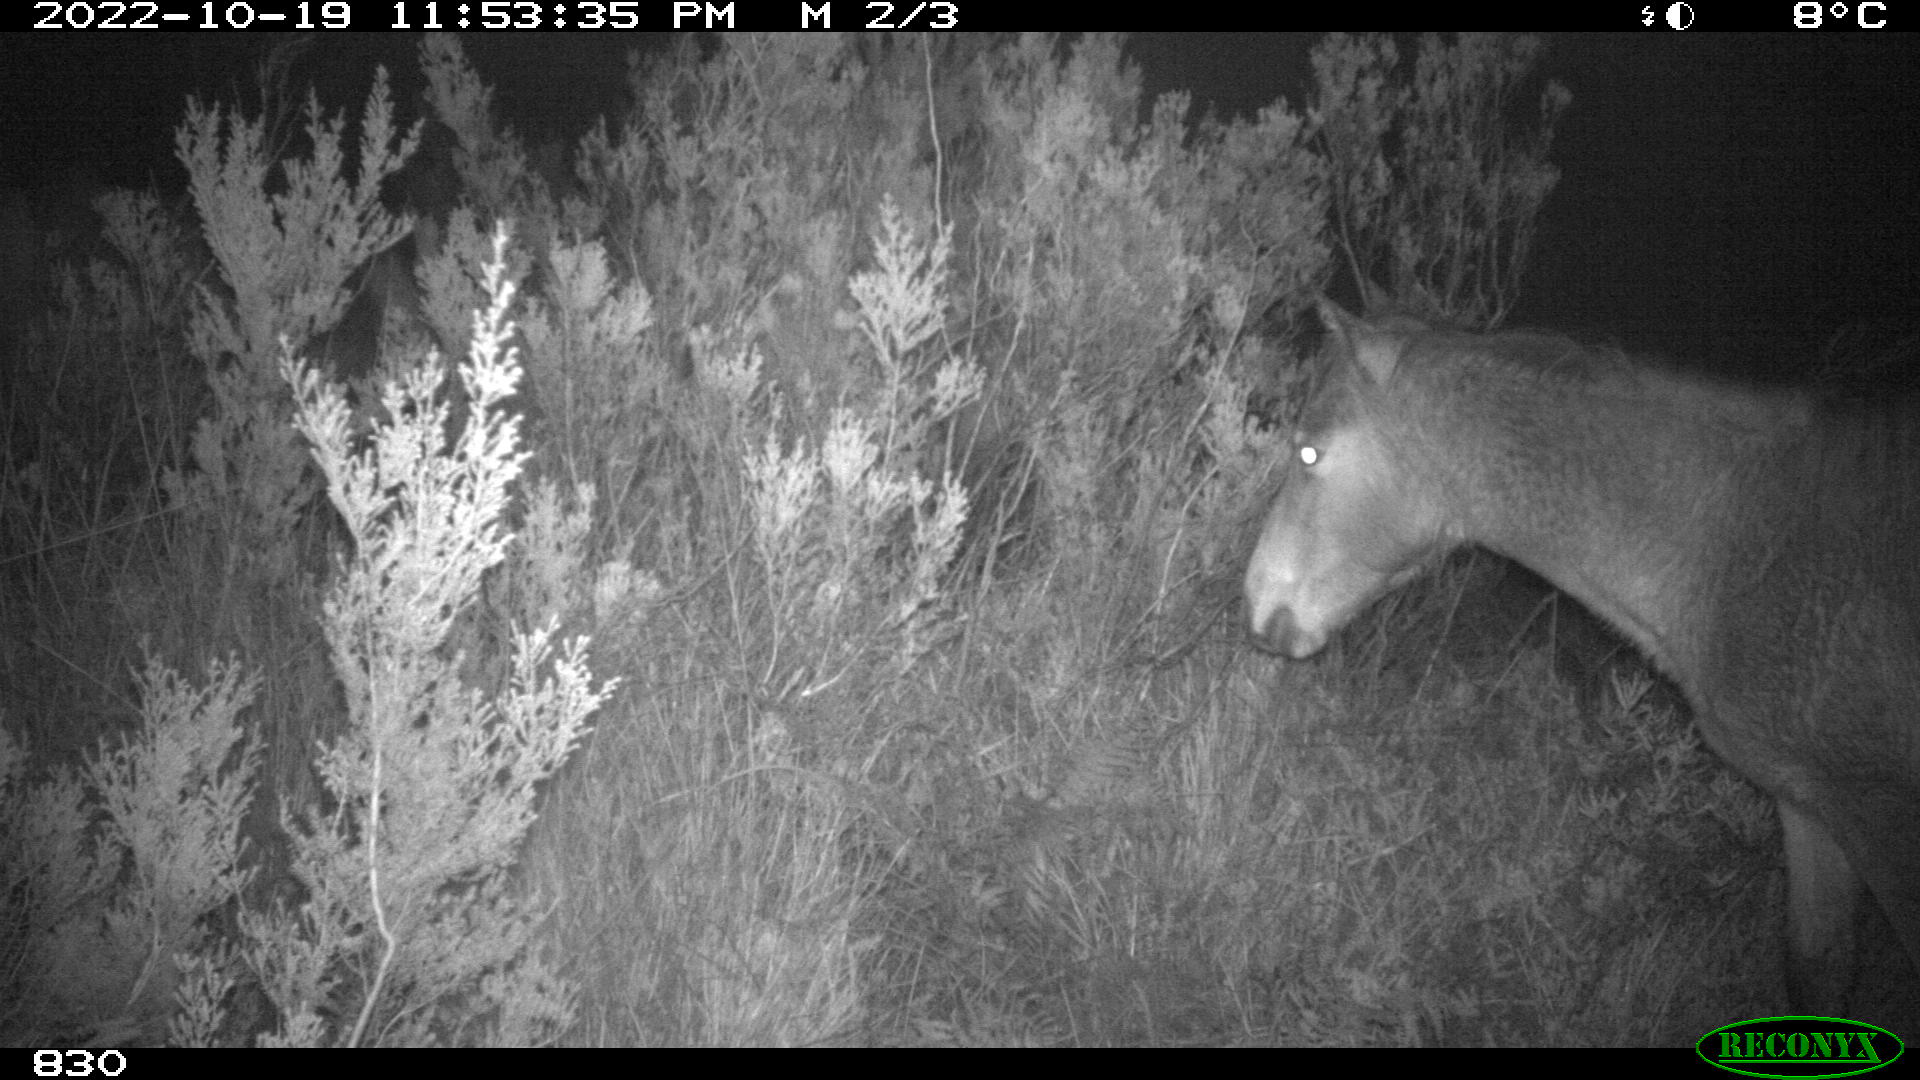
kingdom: Animalia
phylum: Chordata
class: Mammalia
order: Perissodactyla
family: Equidae
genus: Equus
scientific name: Equus caballus
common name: Horse
